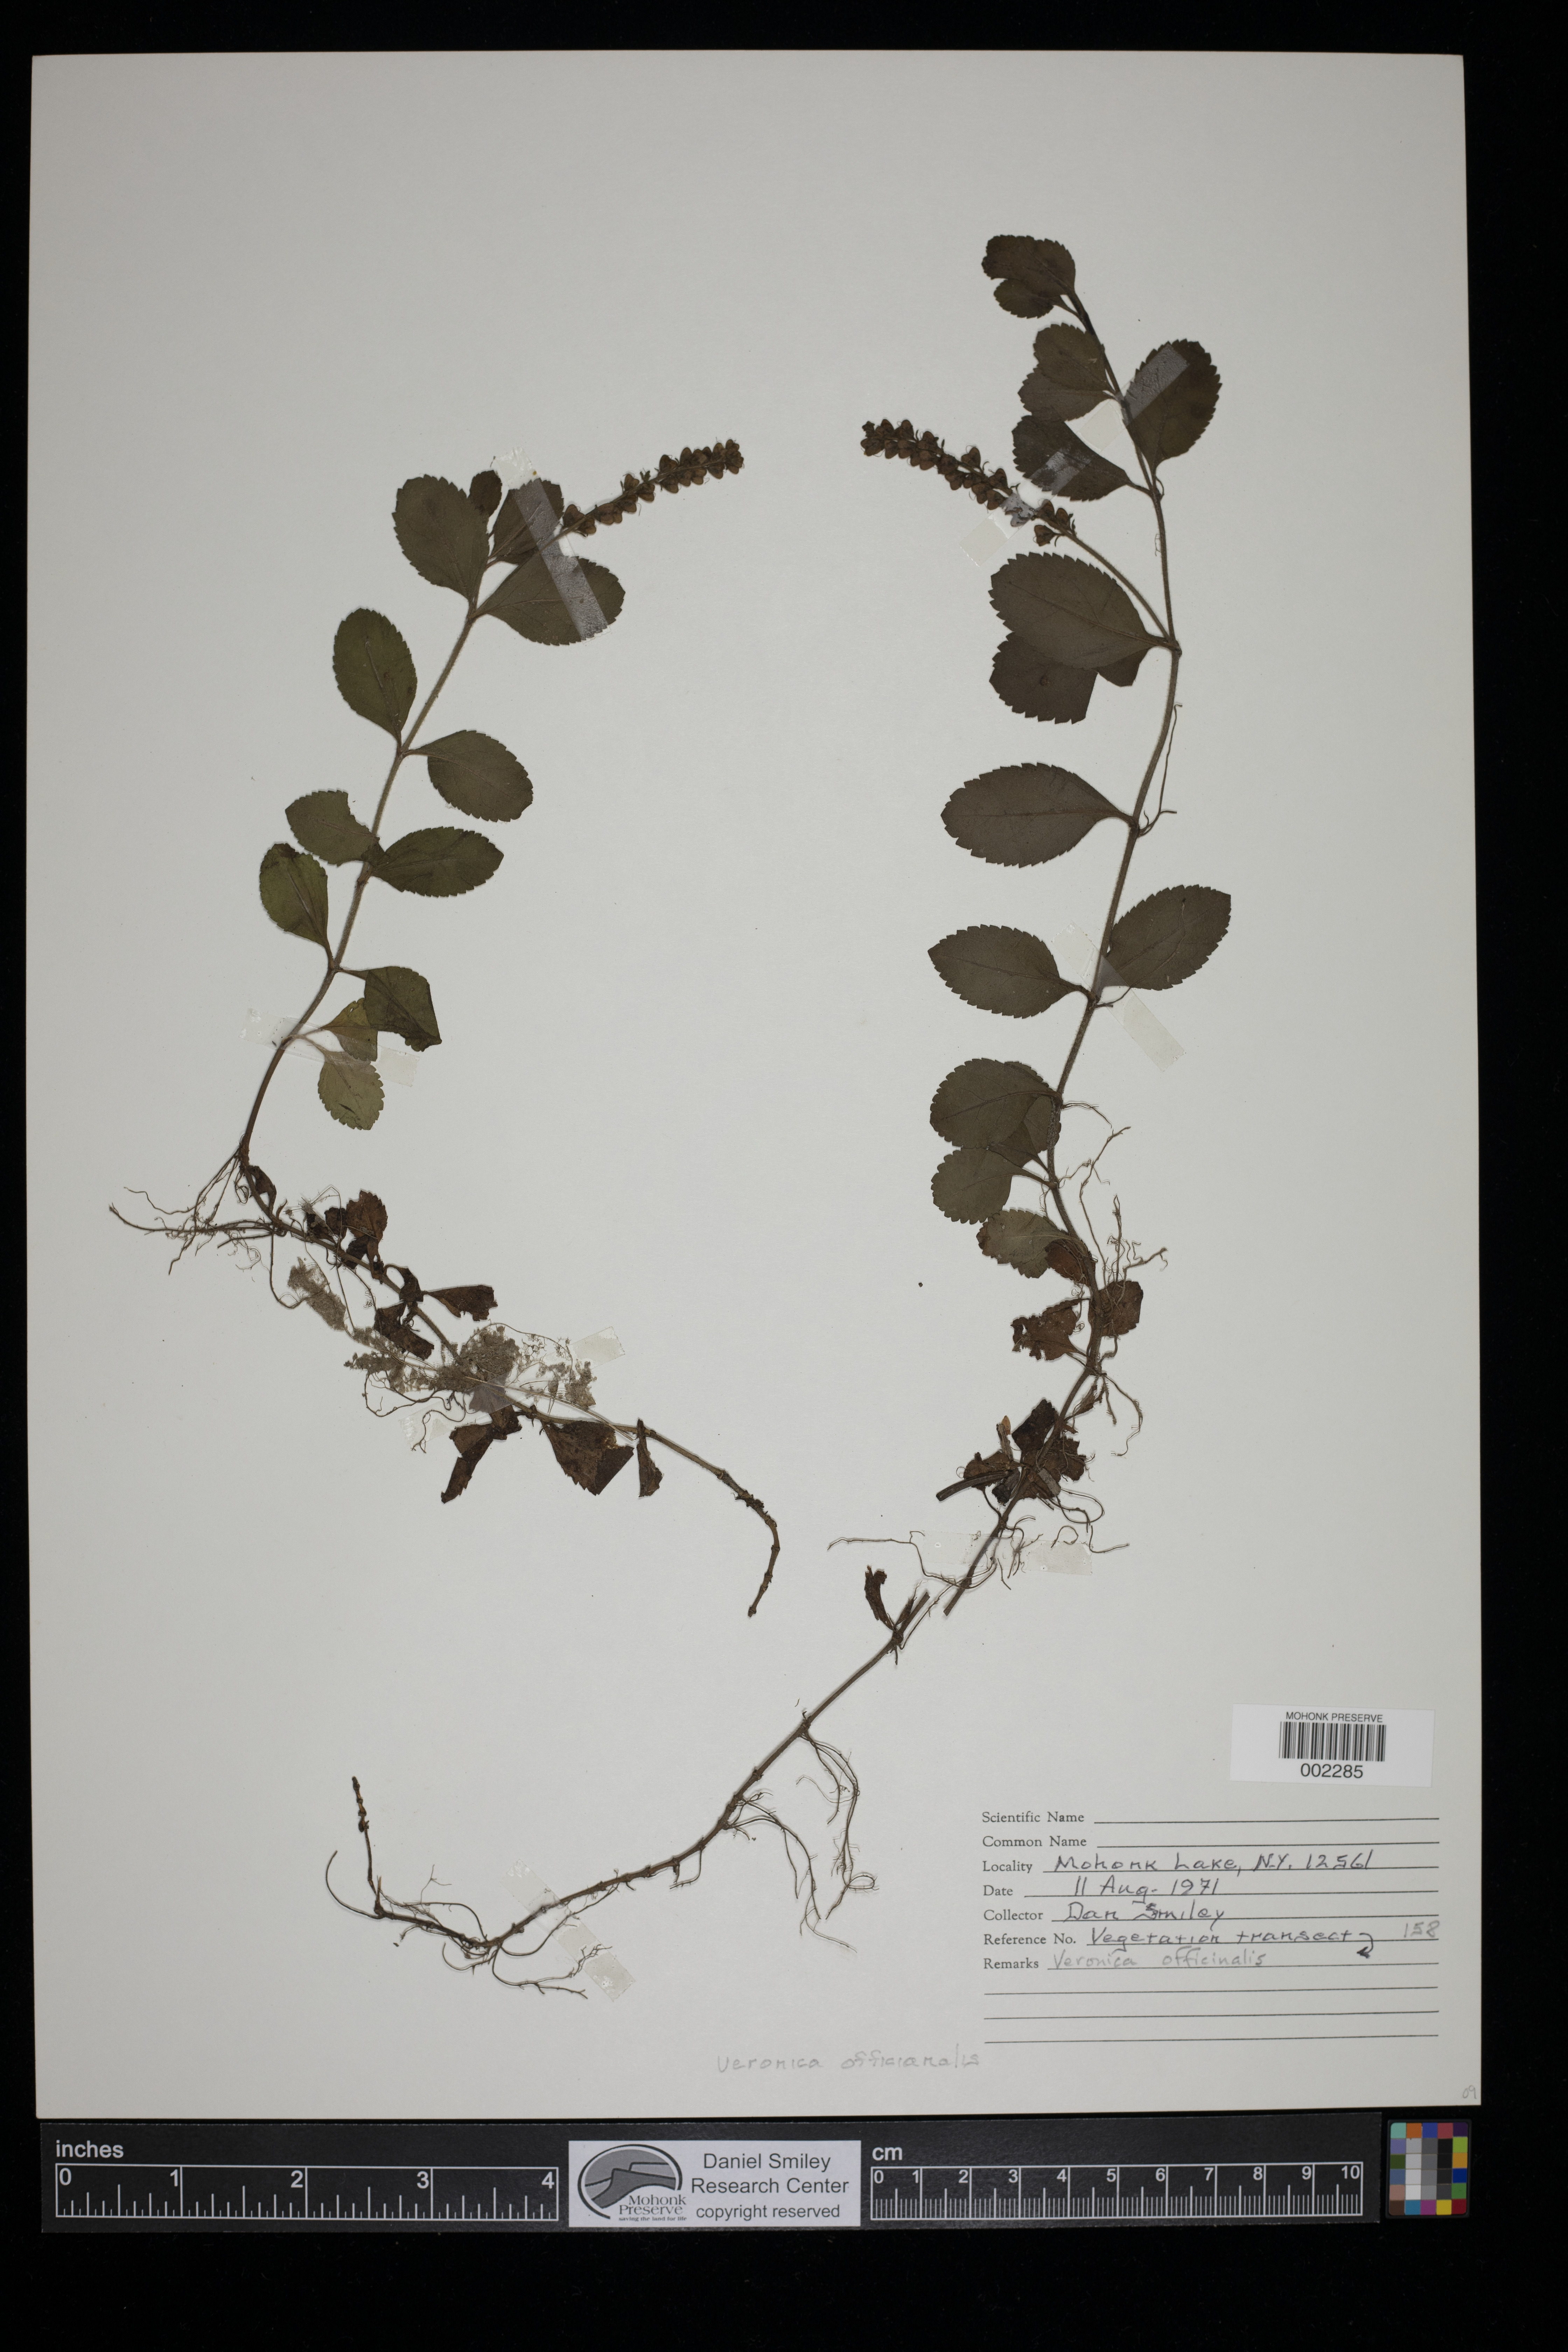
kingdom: Plantae
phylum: Tracheophyta
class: Magnoliopsida
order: Lamiales
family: Plantaginaceae
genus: Veronica
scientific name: Veronica officinalis
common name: Common speedwell
